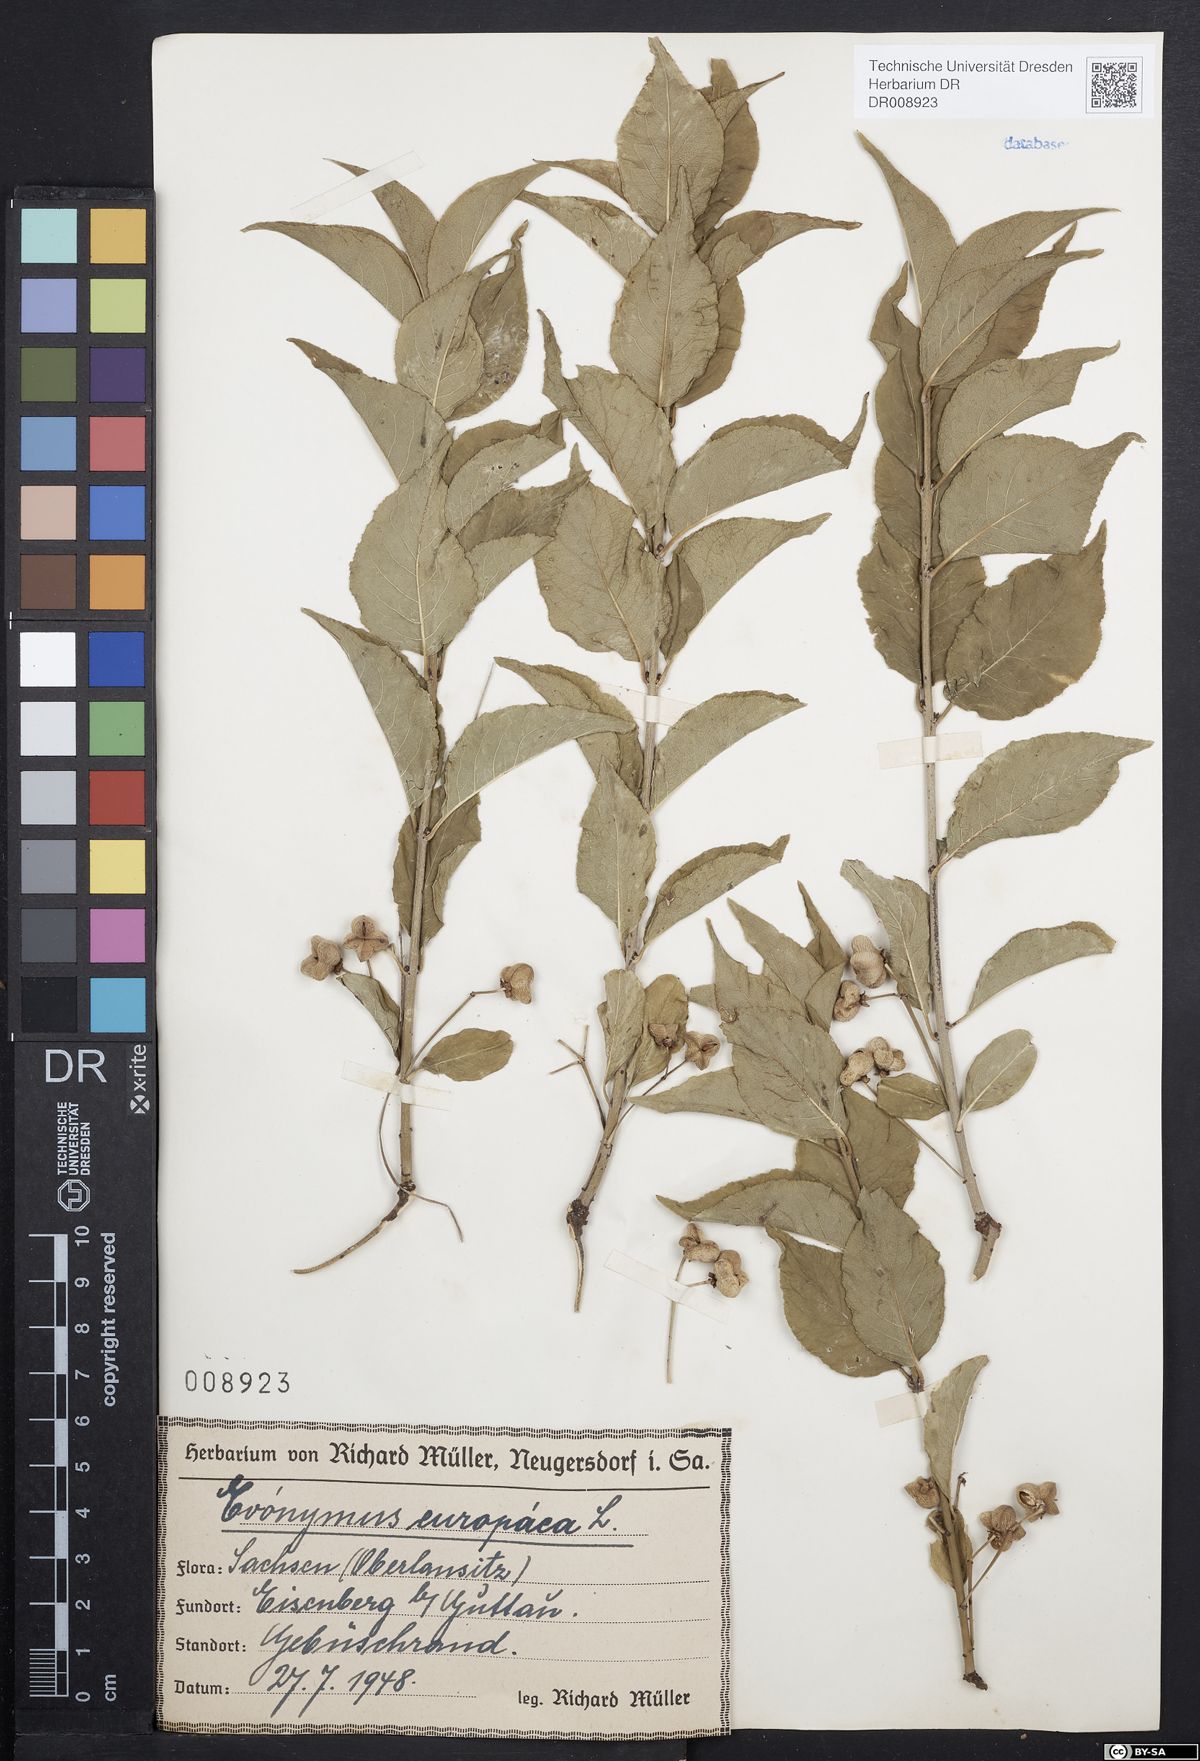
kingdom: Plantae
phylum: Tracheophyta
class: Magnoliopsida
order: Celastrales
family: Celastraceae
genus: Euonymus
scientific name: Euonymus europaeus
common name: Spindle
